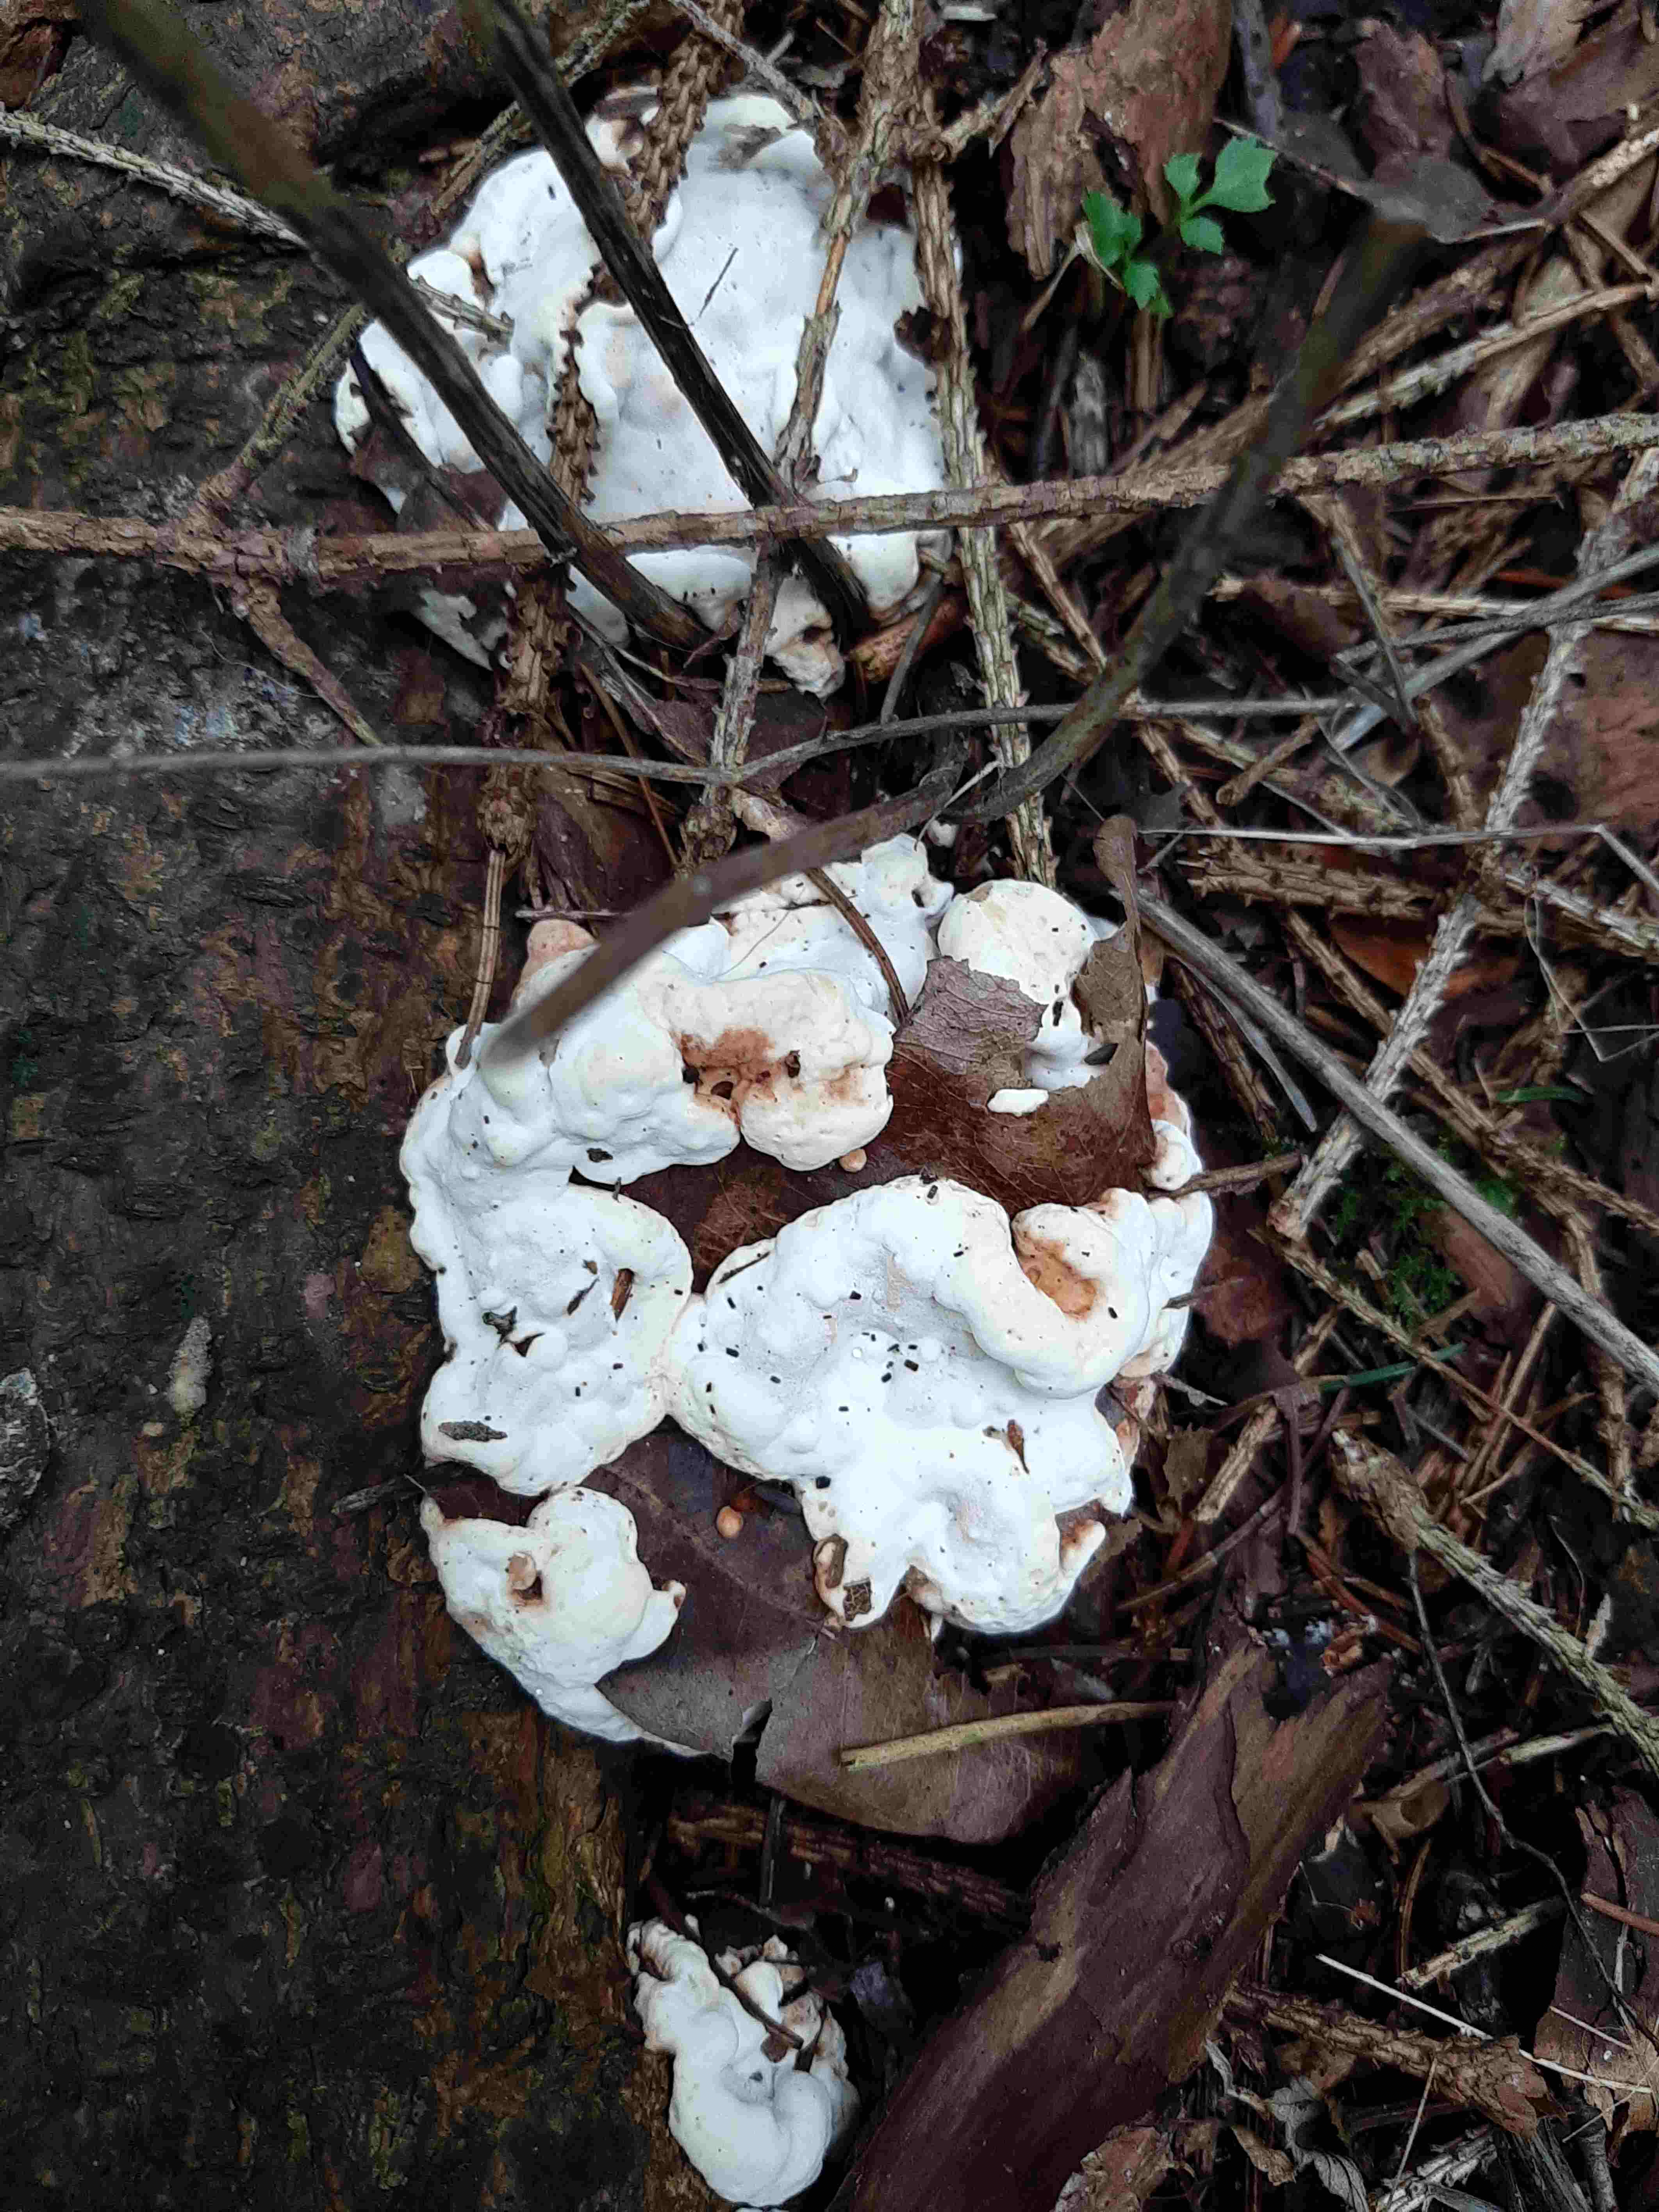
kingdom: Fungi
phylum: Basidiomycota
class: Agaricomycetes
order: Russulales
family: Bondarzewiaceae
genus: Heterobasidion
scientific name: Heterobasidion annosum
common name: almindelig rodfordærver
